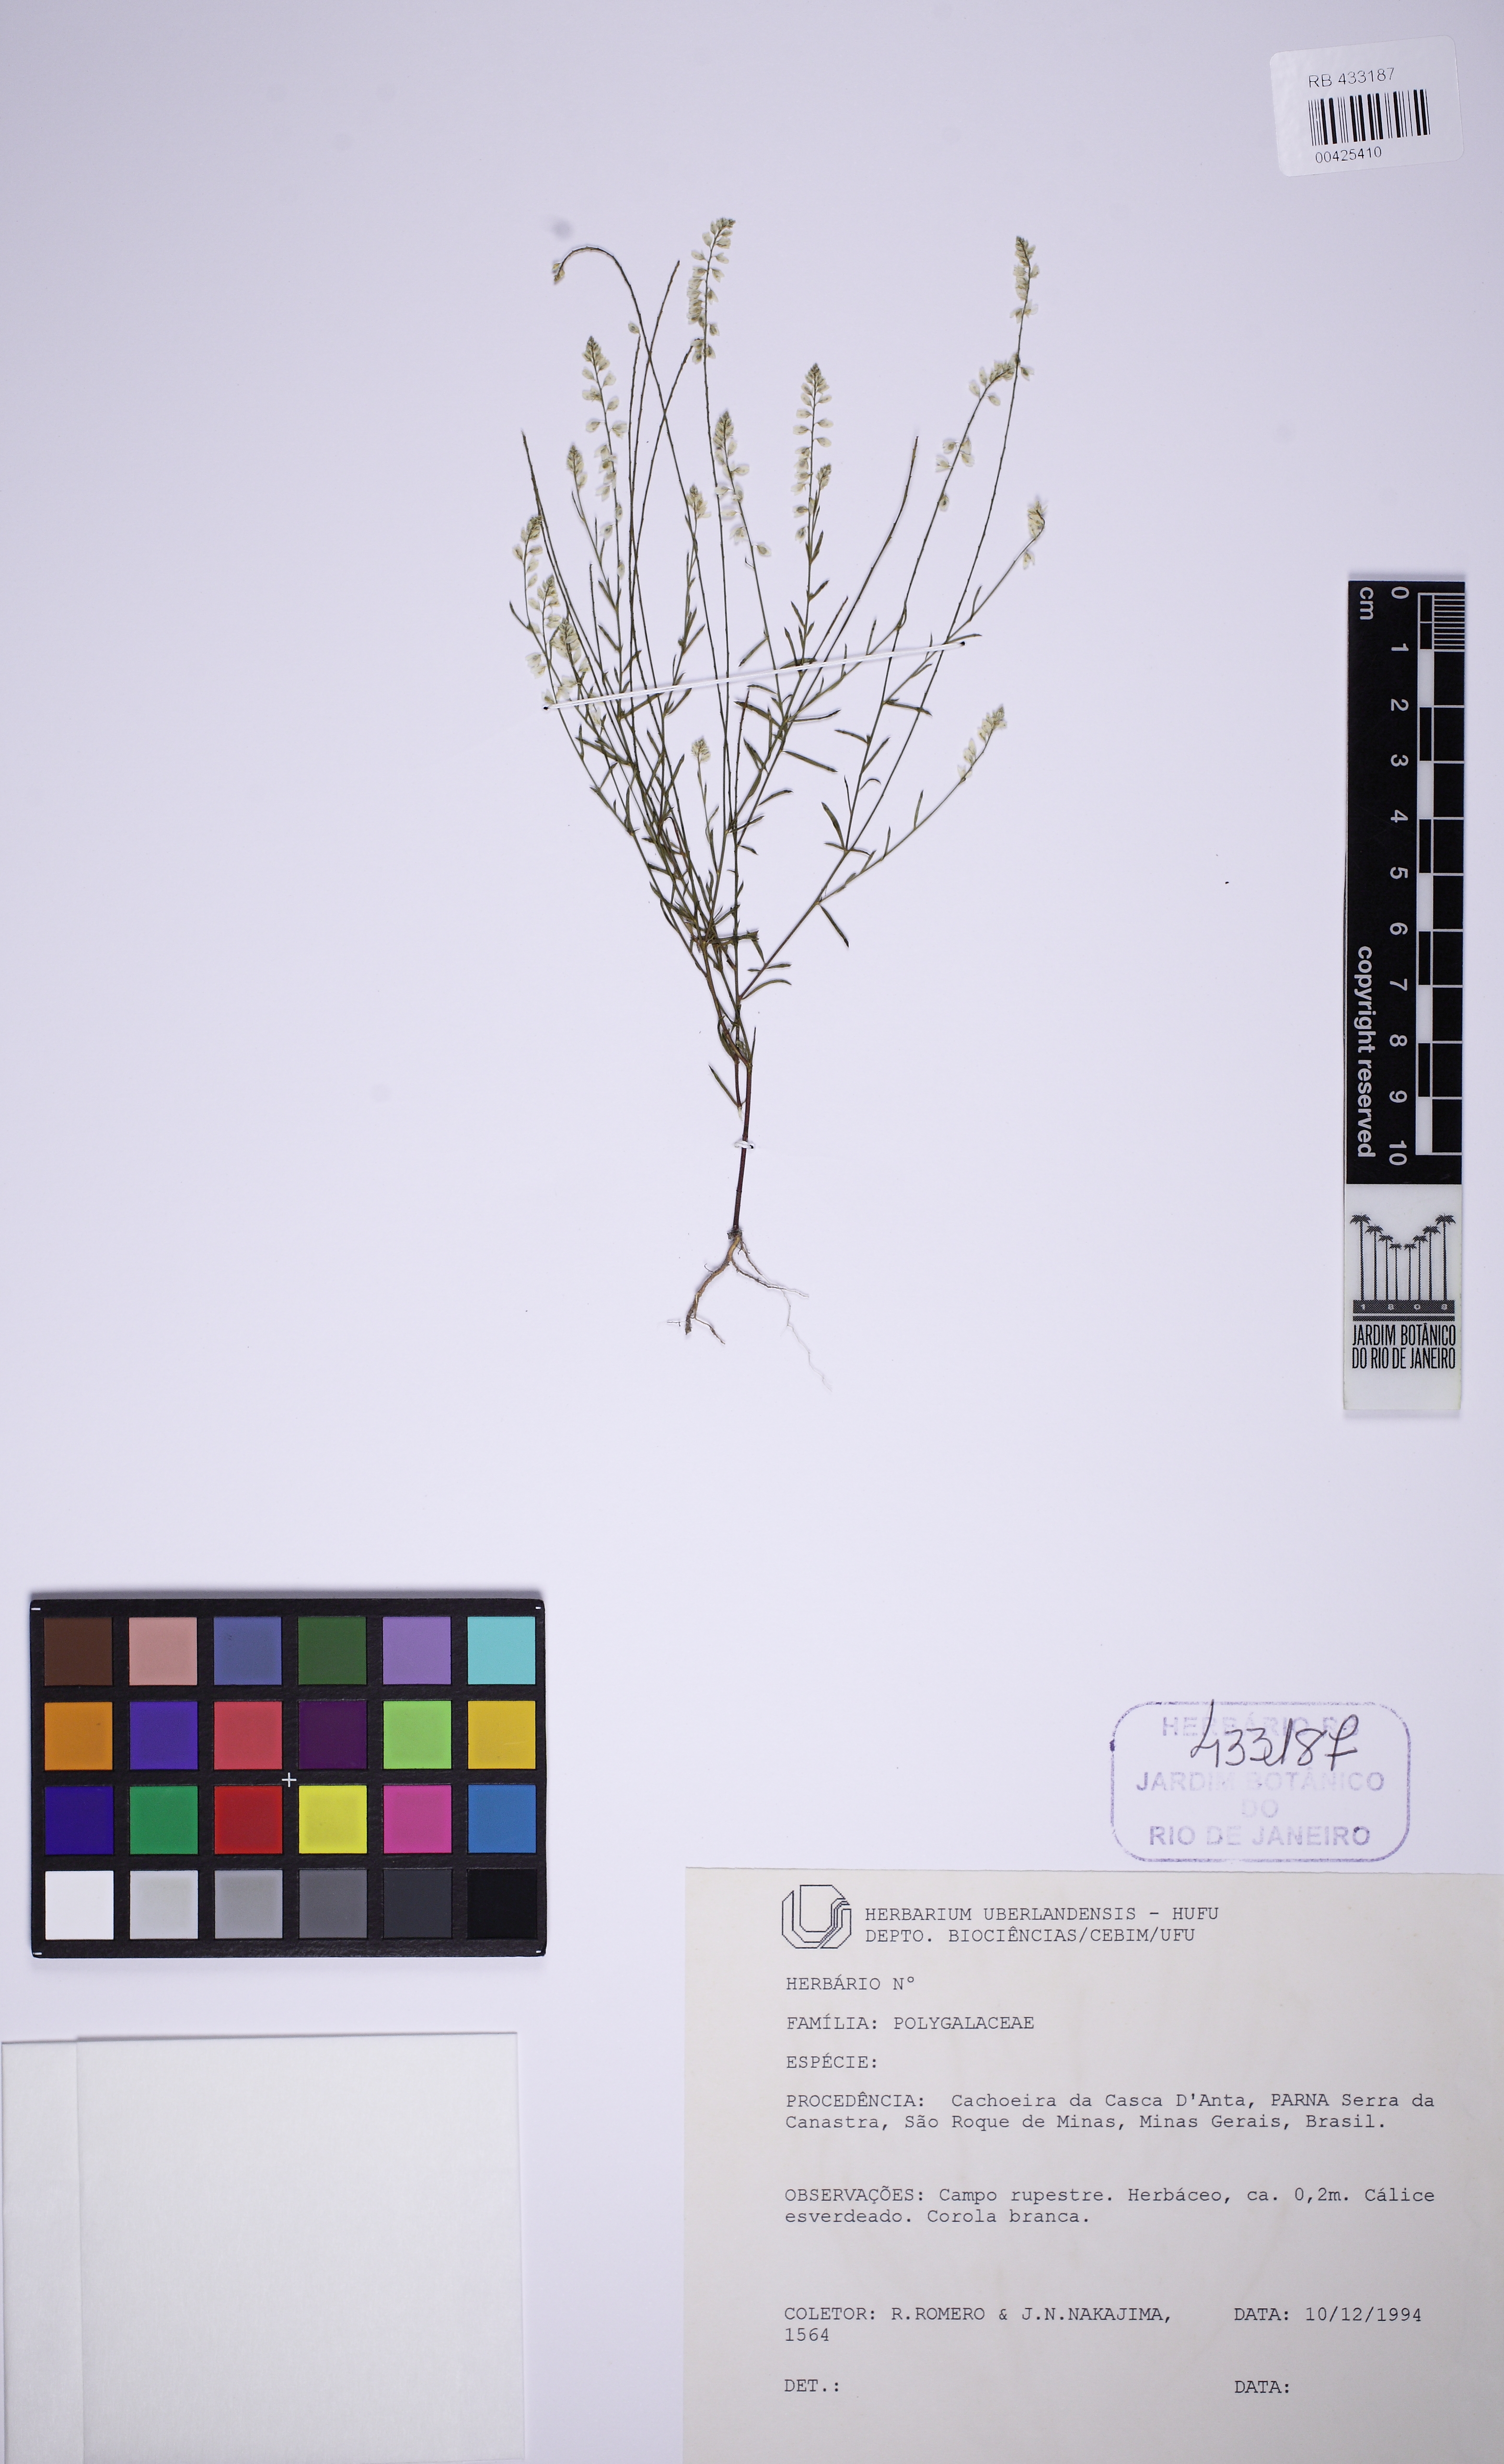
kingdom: Plantae
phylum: Tracheophyta
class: Magnoliopsida
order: Fabales
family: Polygalaceae
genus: Polygala
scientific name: Polygala glochidiata
